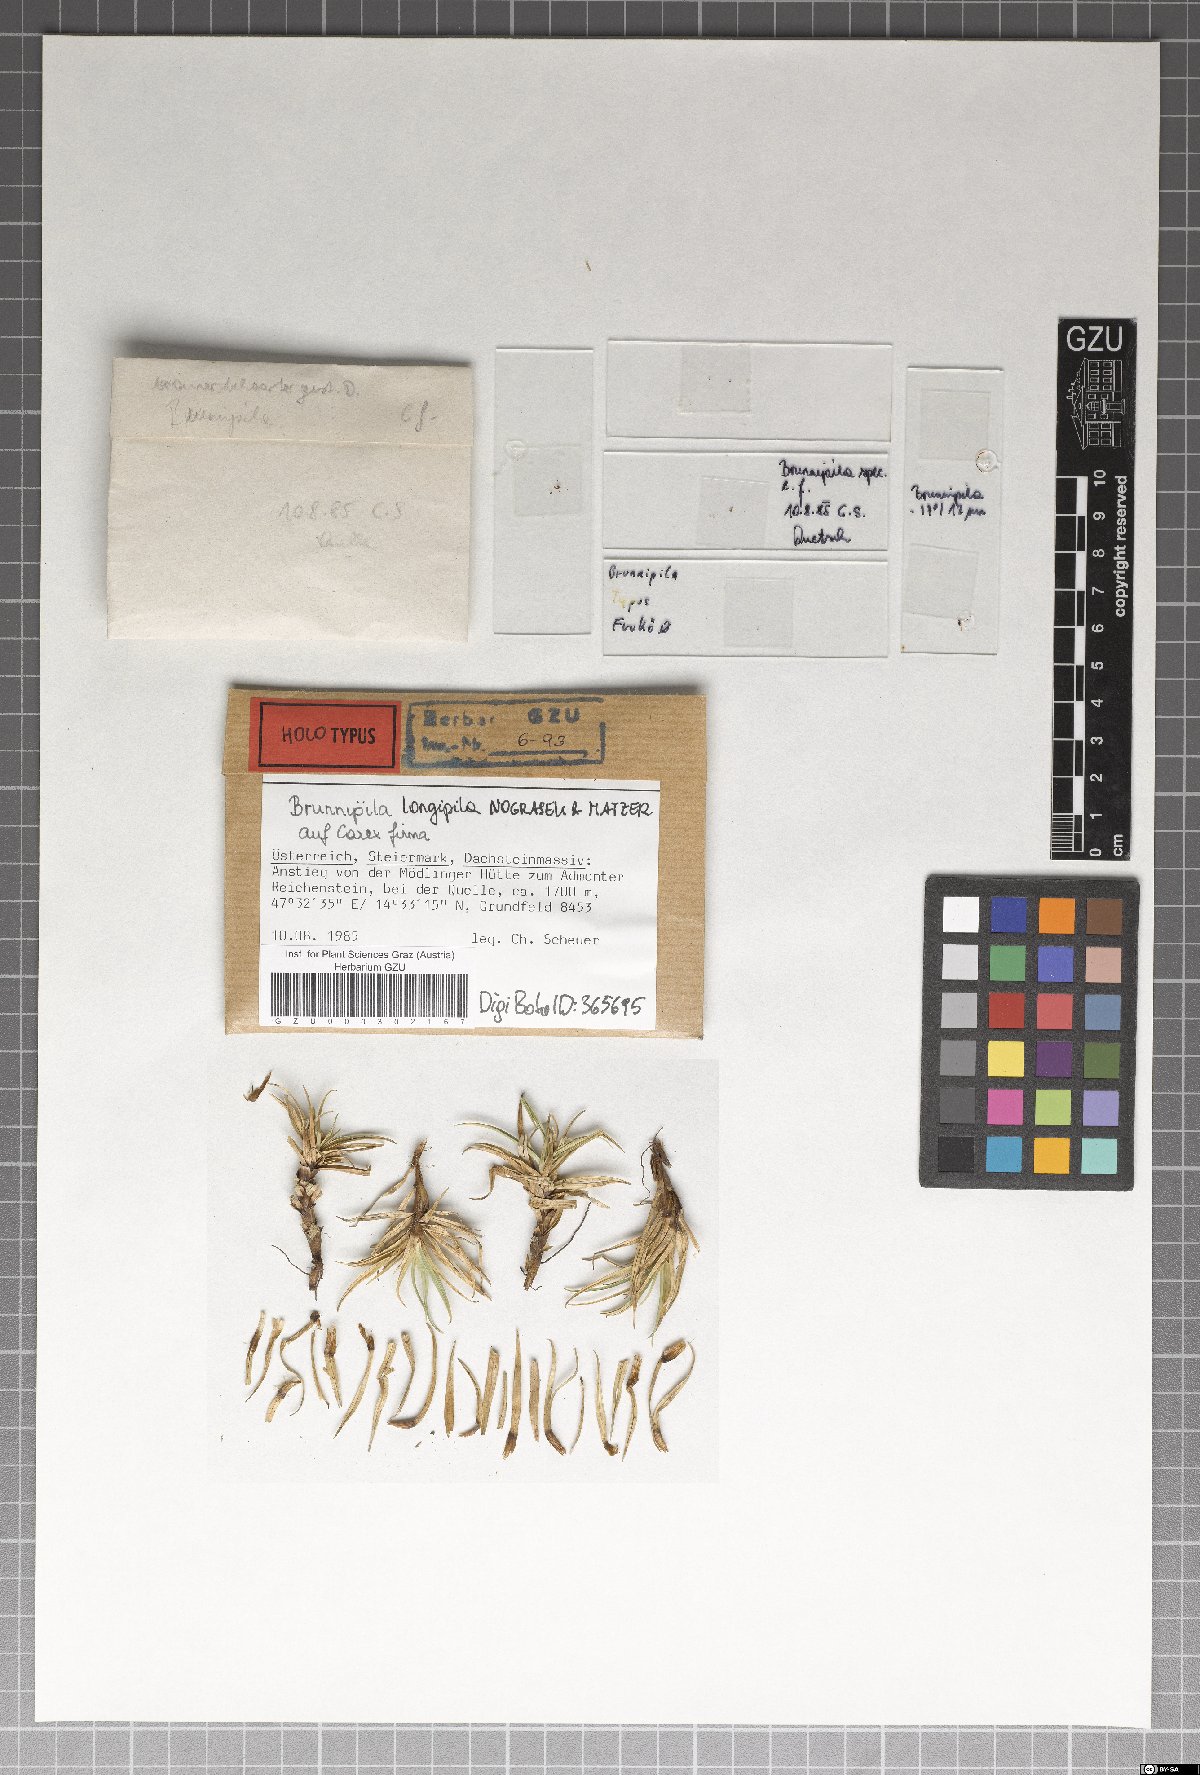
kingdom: Fungi
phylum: Ascomycota
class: Leotiomycetes
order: Helotiales
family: Lachnaceae
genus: Brunnipila
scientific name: Brunnipila longipila
